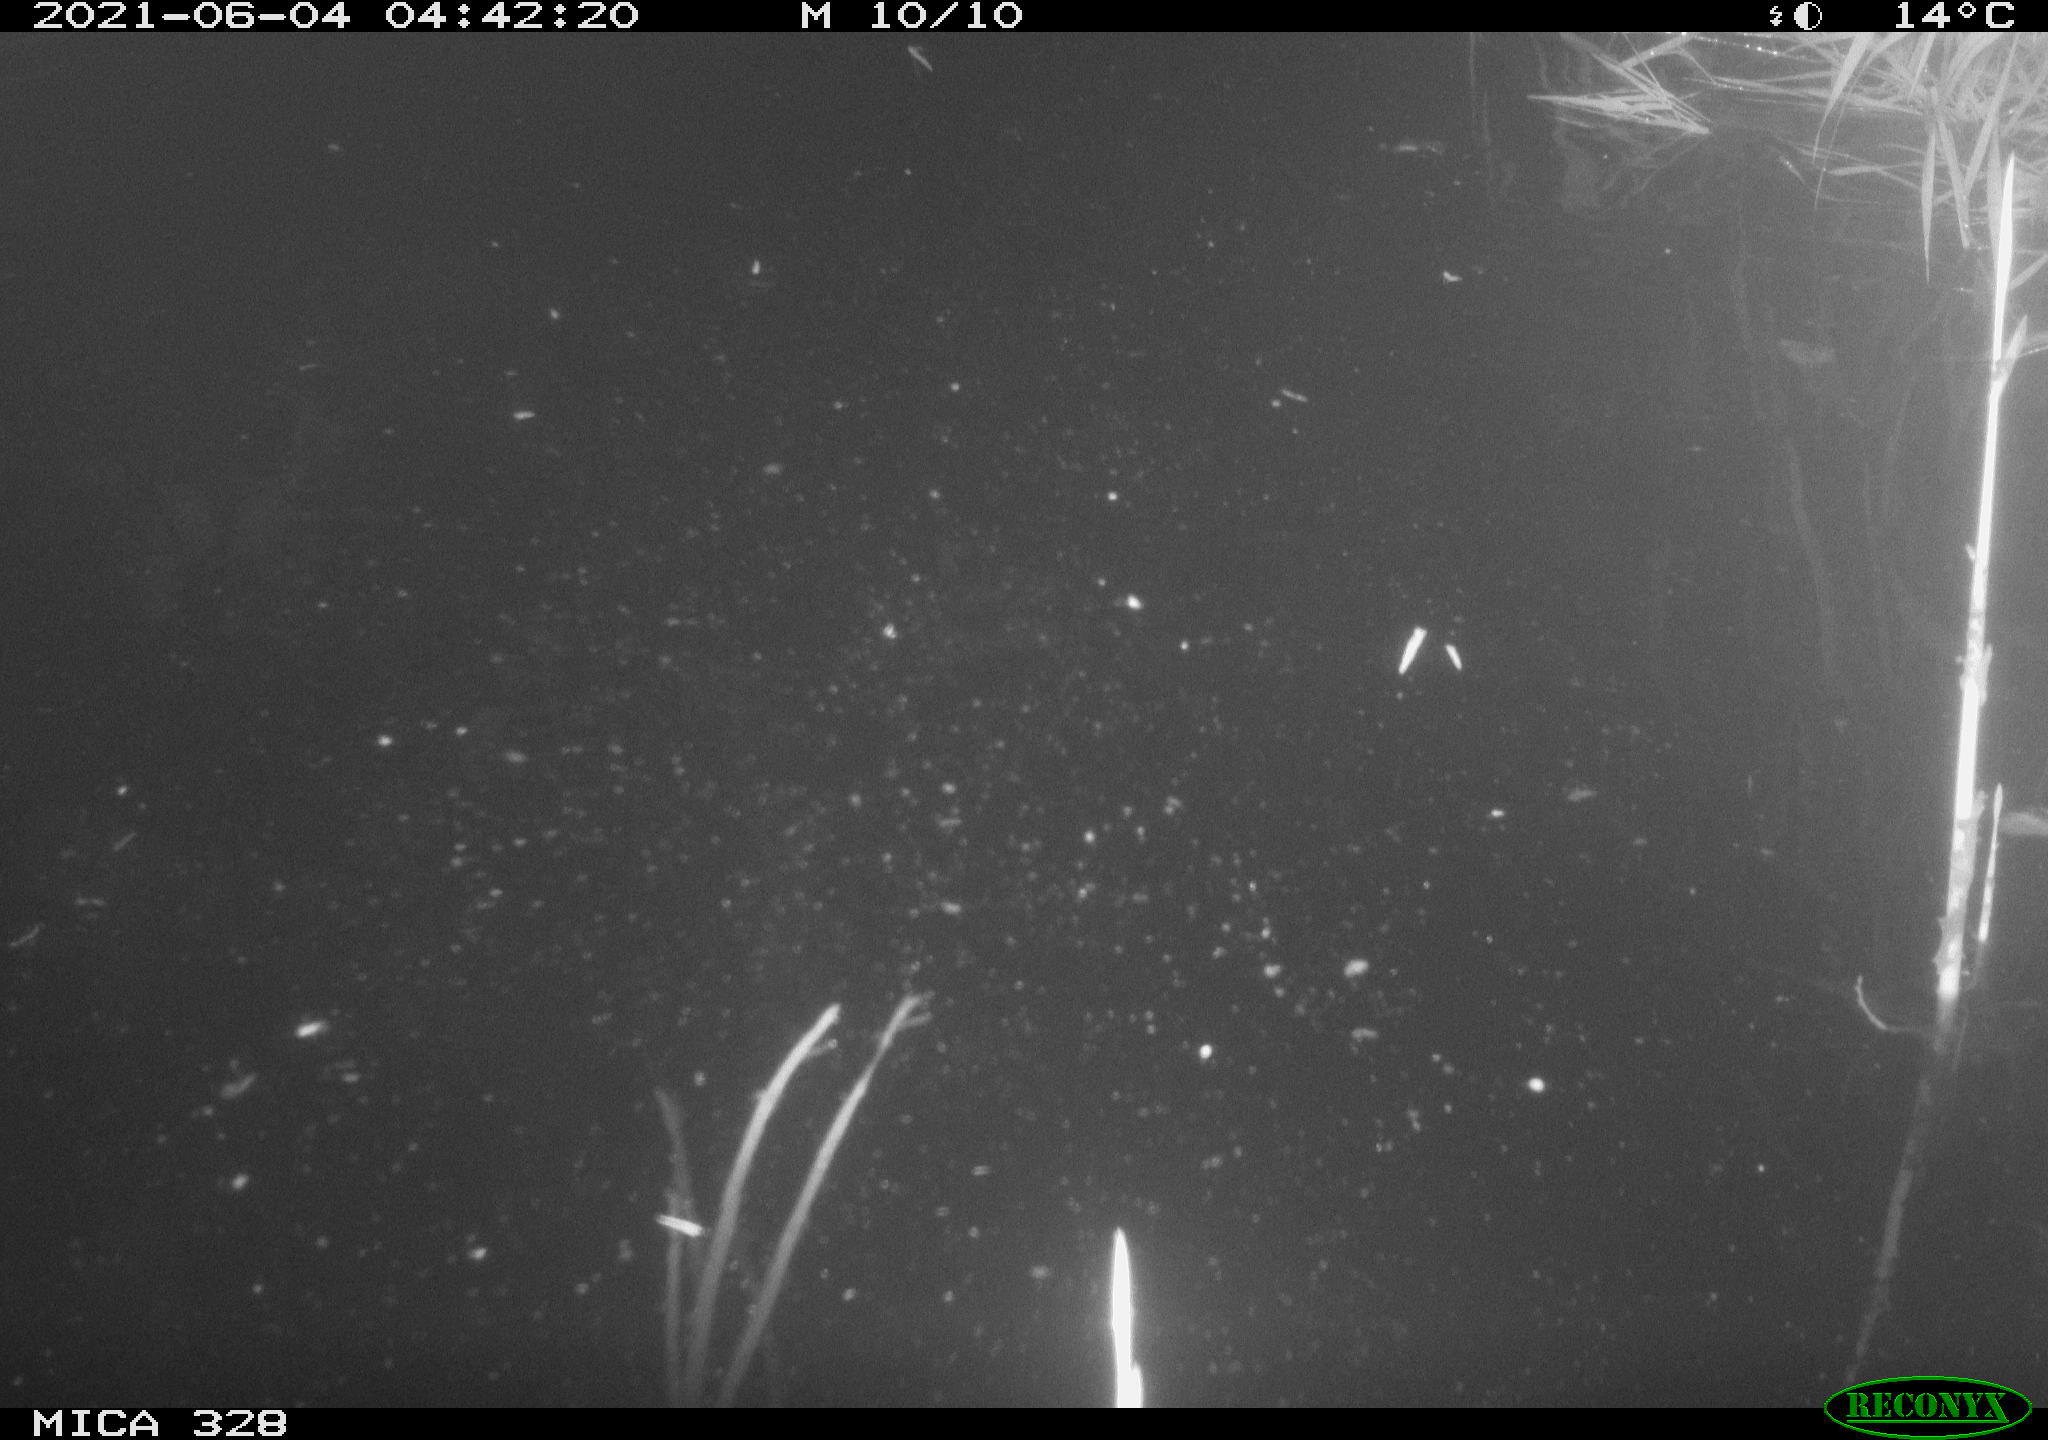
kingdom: Animalia
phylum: Chordata
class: Mammalia
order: Rodentia
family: Cricetidae
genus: Ondatra
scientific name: Ondatra zibethicus
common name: Muskrat
